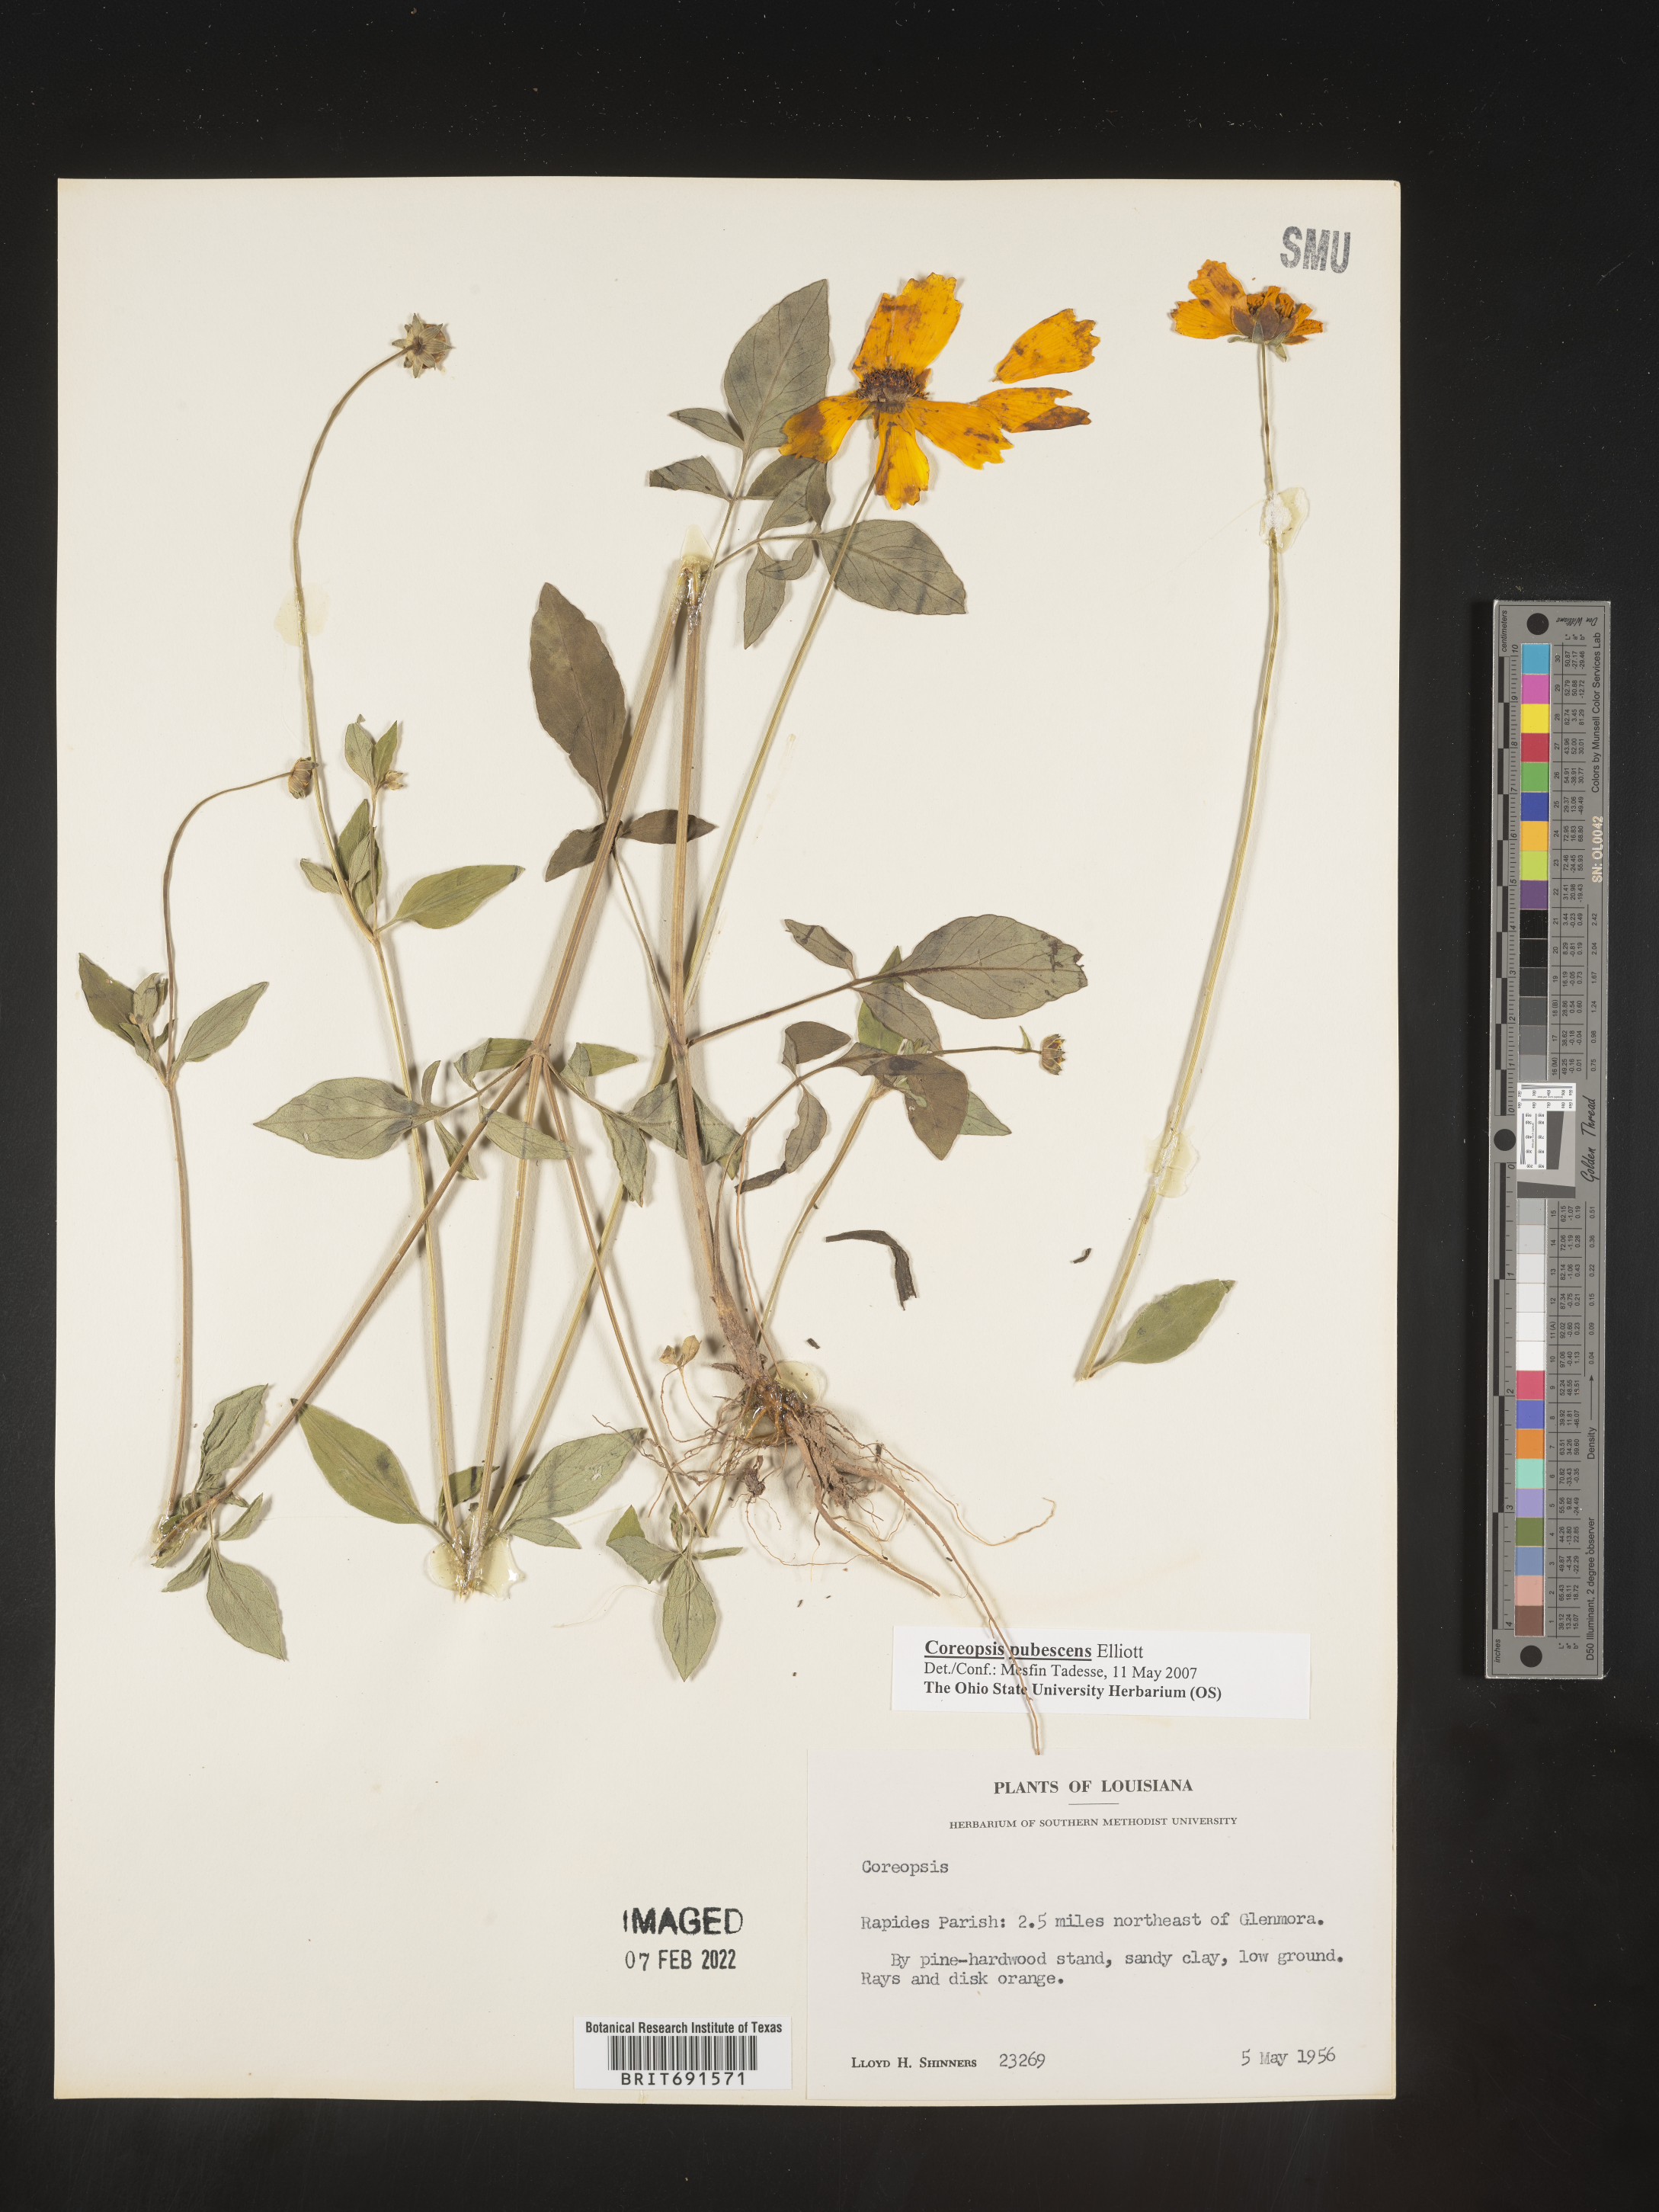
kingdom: Plantae
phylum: Tracheophyta
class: Magnoliopsida
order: Asterales
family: Asteraceae
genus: Coreopsis
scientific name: Coreopsis pubescens
